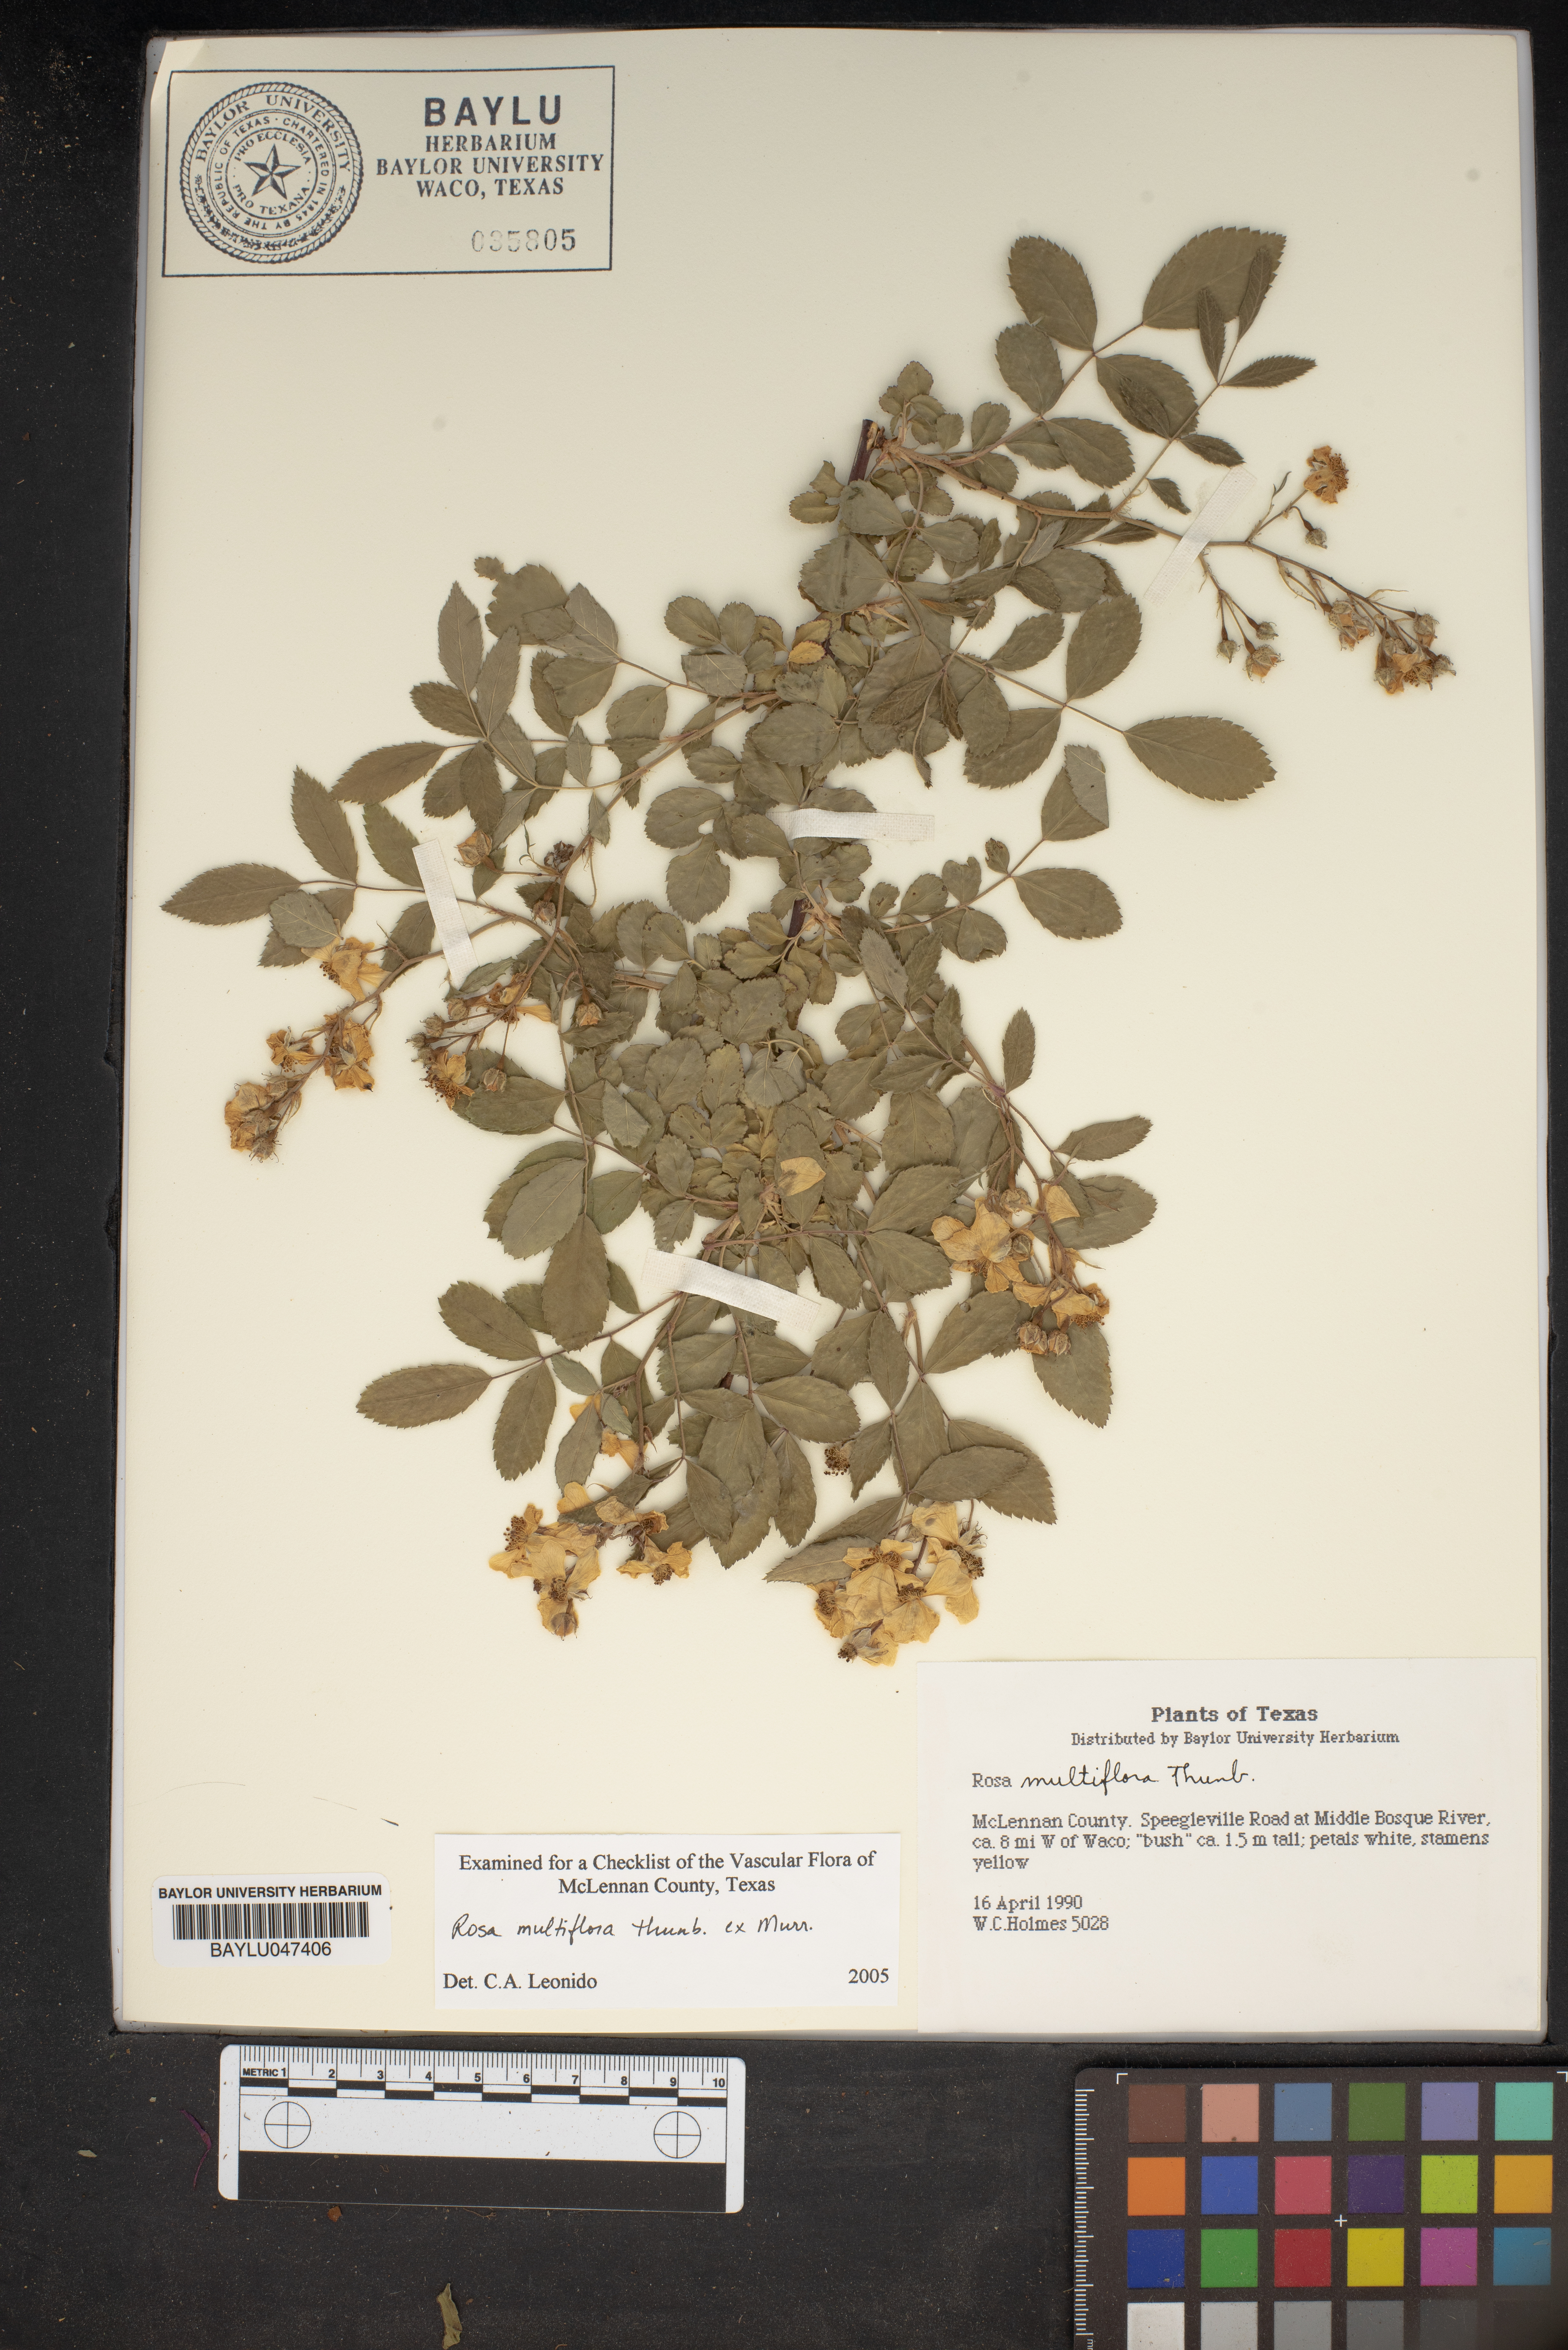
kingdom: Plantae
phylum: Tracheophyta
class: Magnoliopsida
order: Rosales
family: Rosaceae
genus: Rosa
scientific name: Rosa multiflora
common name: Multiflora rose
